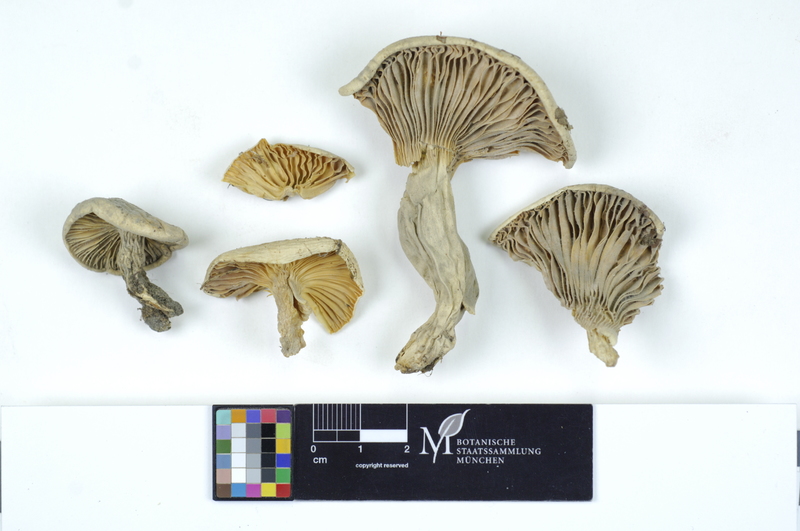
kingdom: Fungi
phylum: Basidiomycota
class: Agaricomycetes
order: Agaricales
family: Hygrophoraceae
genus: Hygrophorus
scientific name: Hygrophorus nemoreus
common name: Oak woodwax
